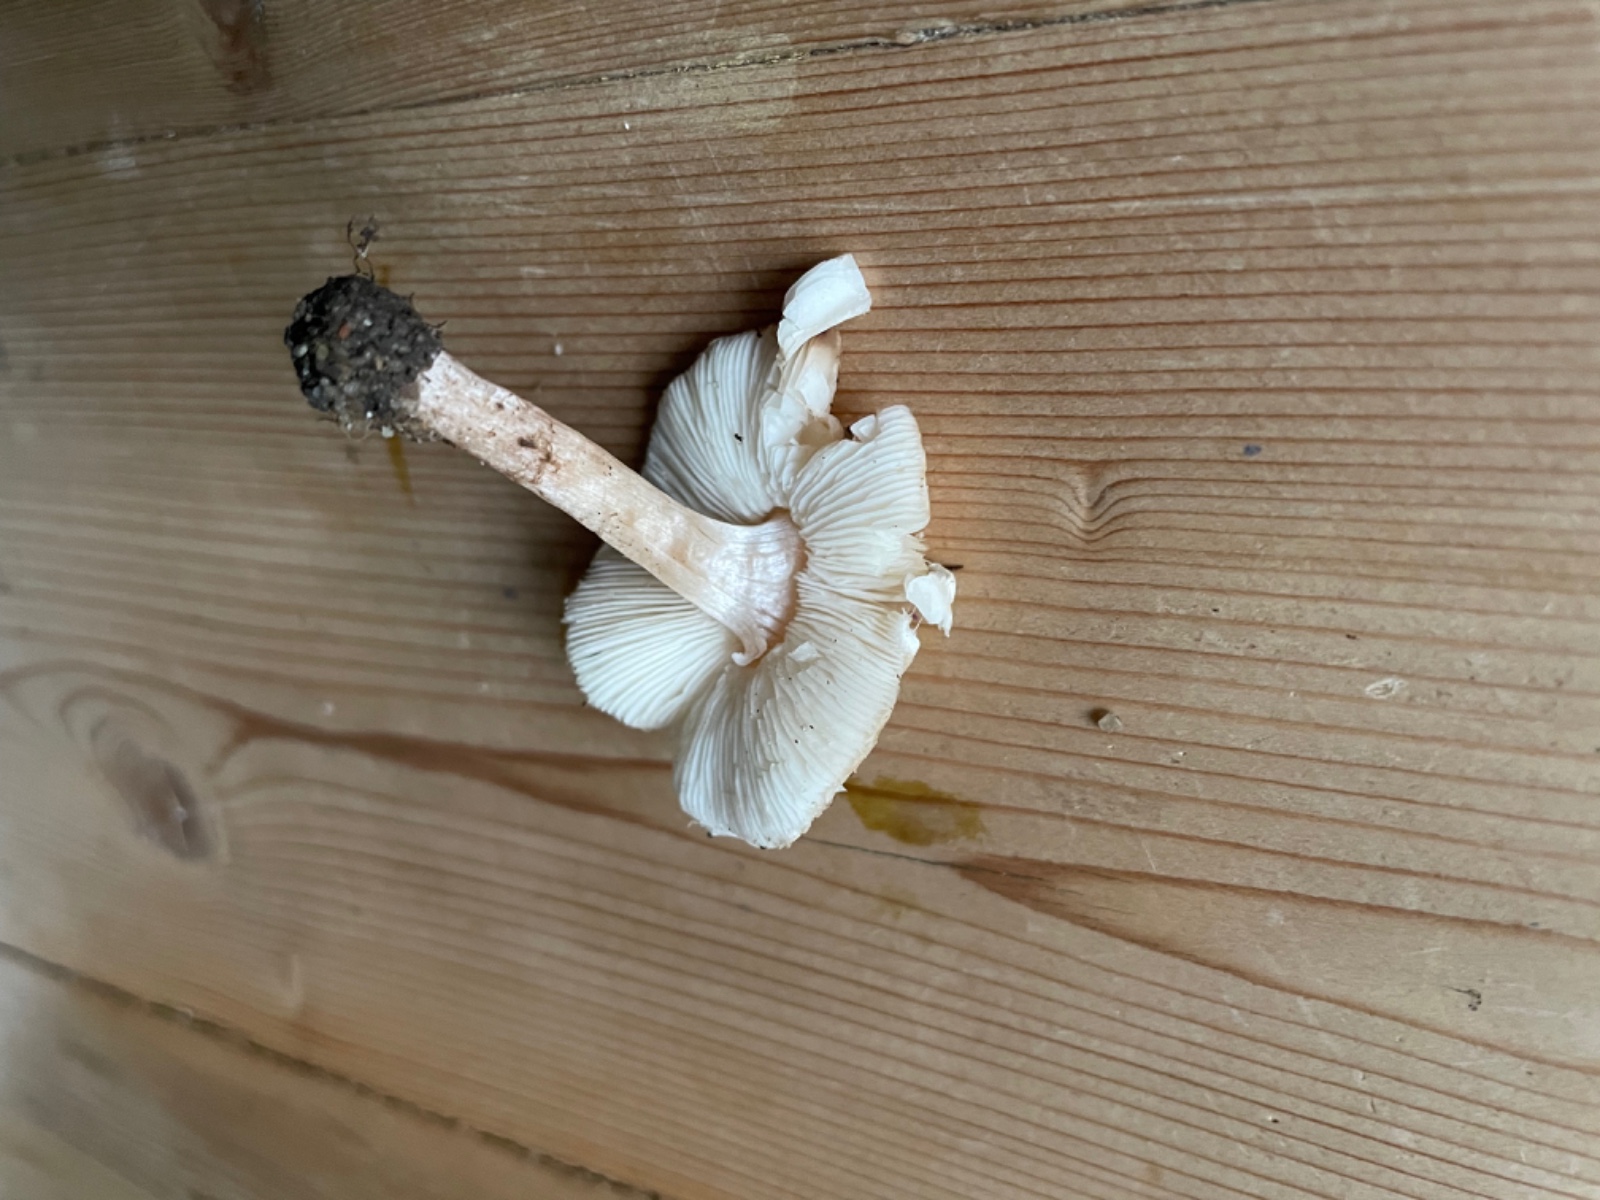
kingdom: Fungi
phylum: Basidiomycota
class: Agaricomycetes
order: Agaricales
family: Agaricaceae
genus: Lepiota
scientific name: Lepiota cristata
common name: stinkende parasolhat
